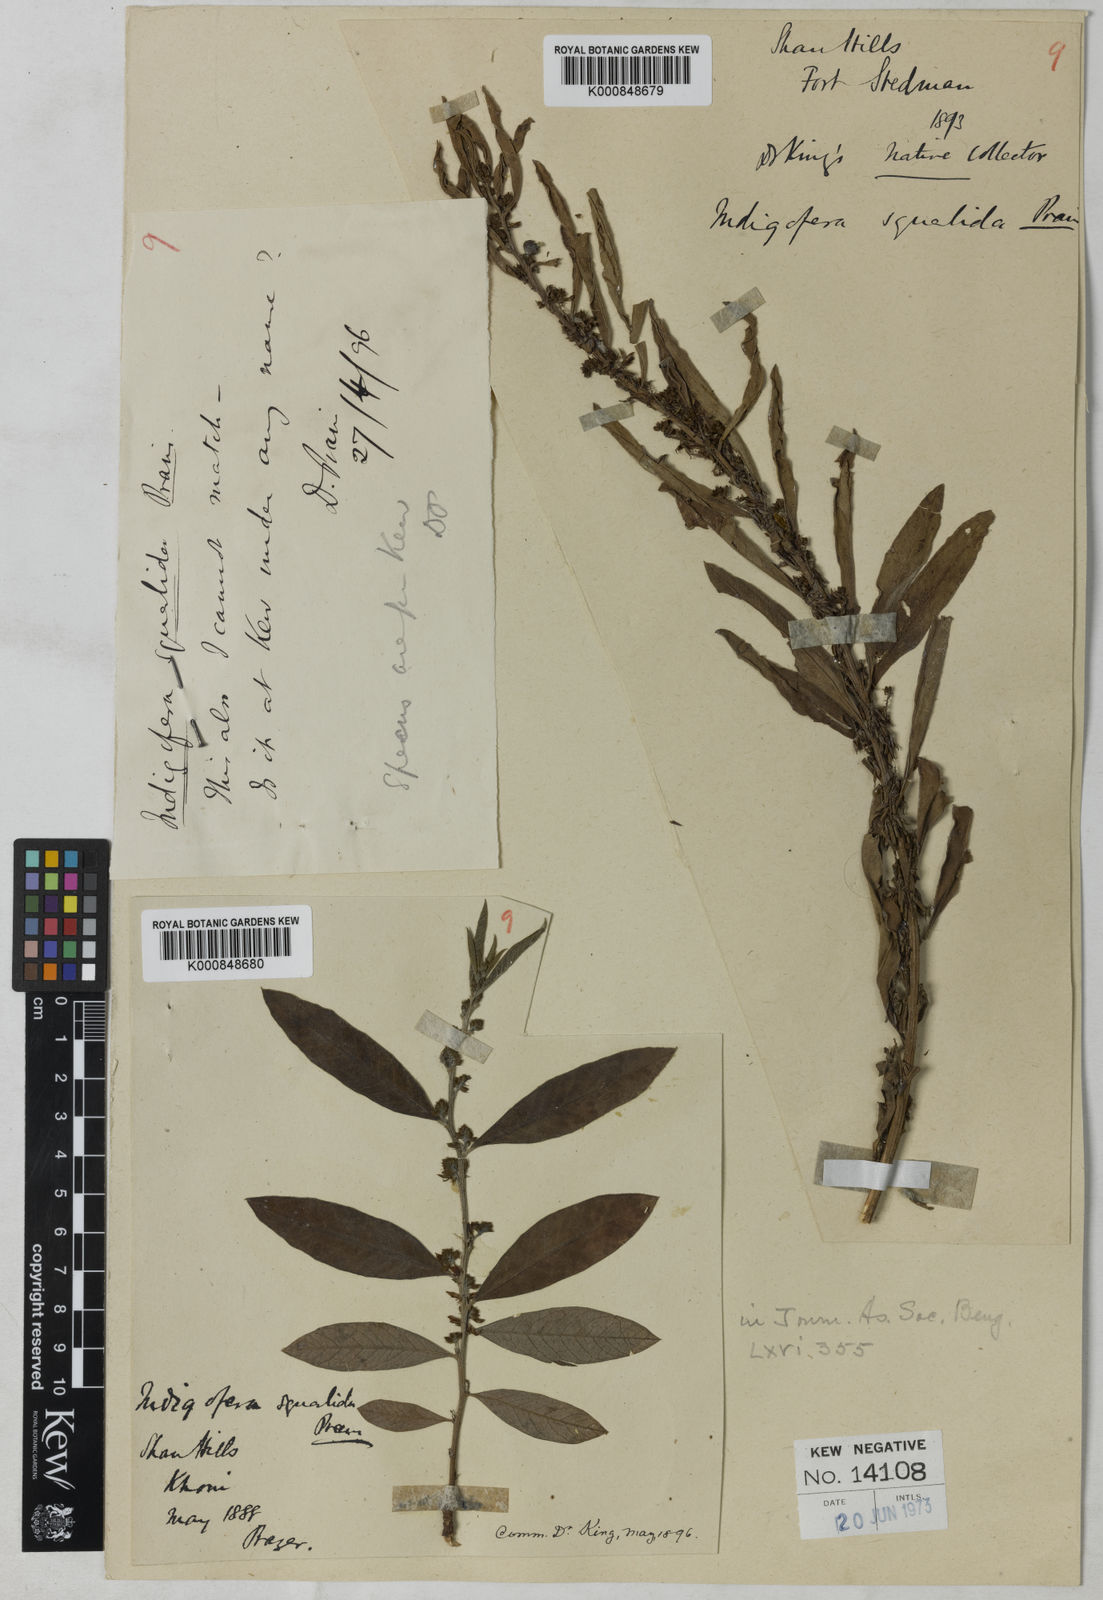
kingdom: Plantae
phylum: Tracheophyta
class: Magnoliopsida
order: Fabales
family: Fabaceae
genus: Indigofera
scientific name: Indigofera squalida
